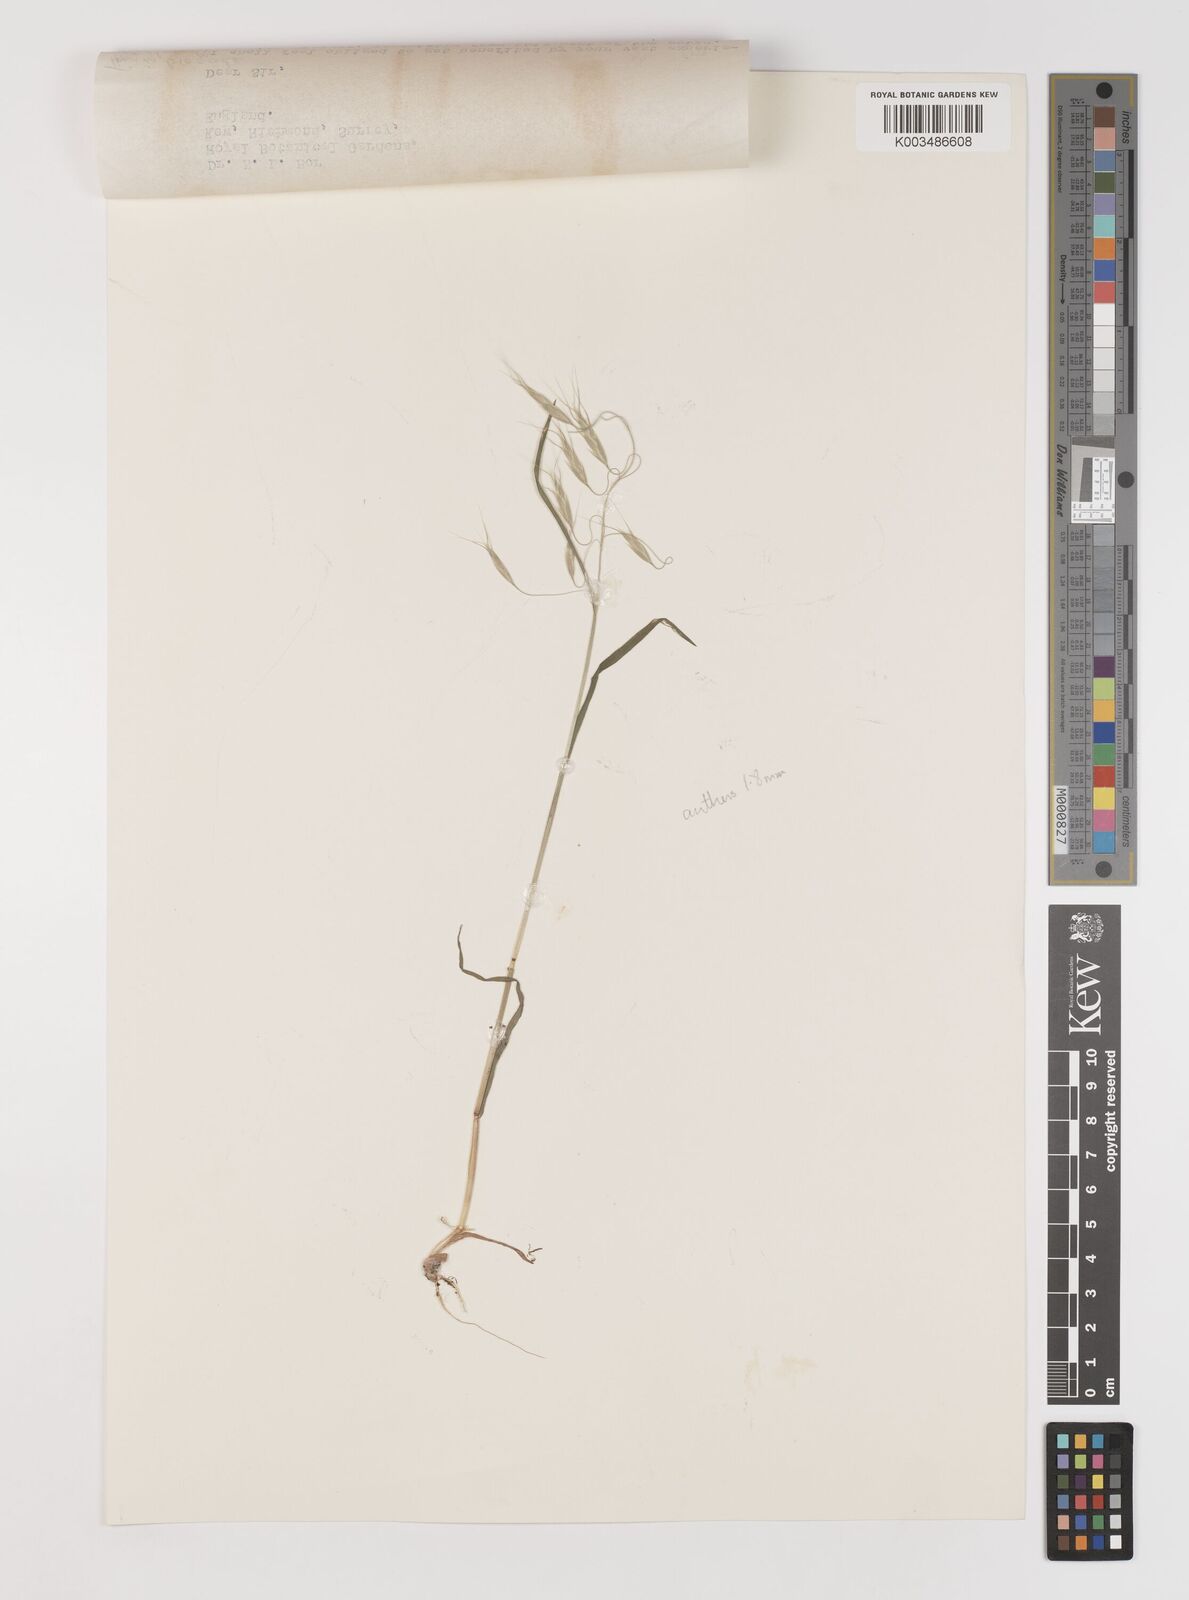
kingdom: Plantae
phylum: Tracheophyta
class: Liliopsida
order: Poales
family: Poaceae
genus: Bromus
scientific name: Bromus pectinatus
